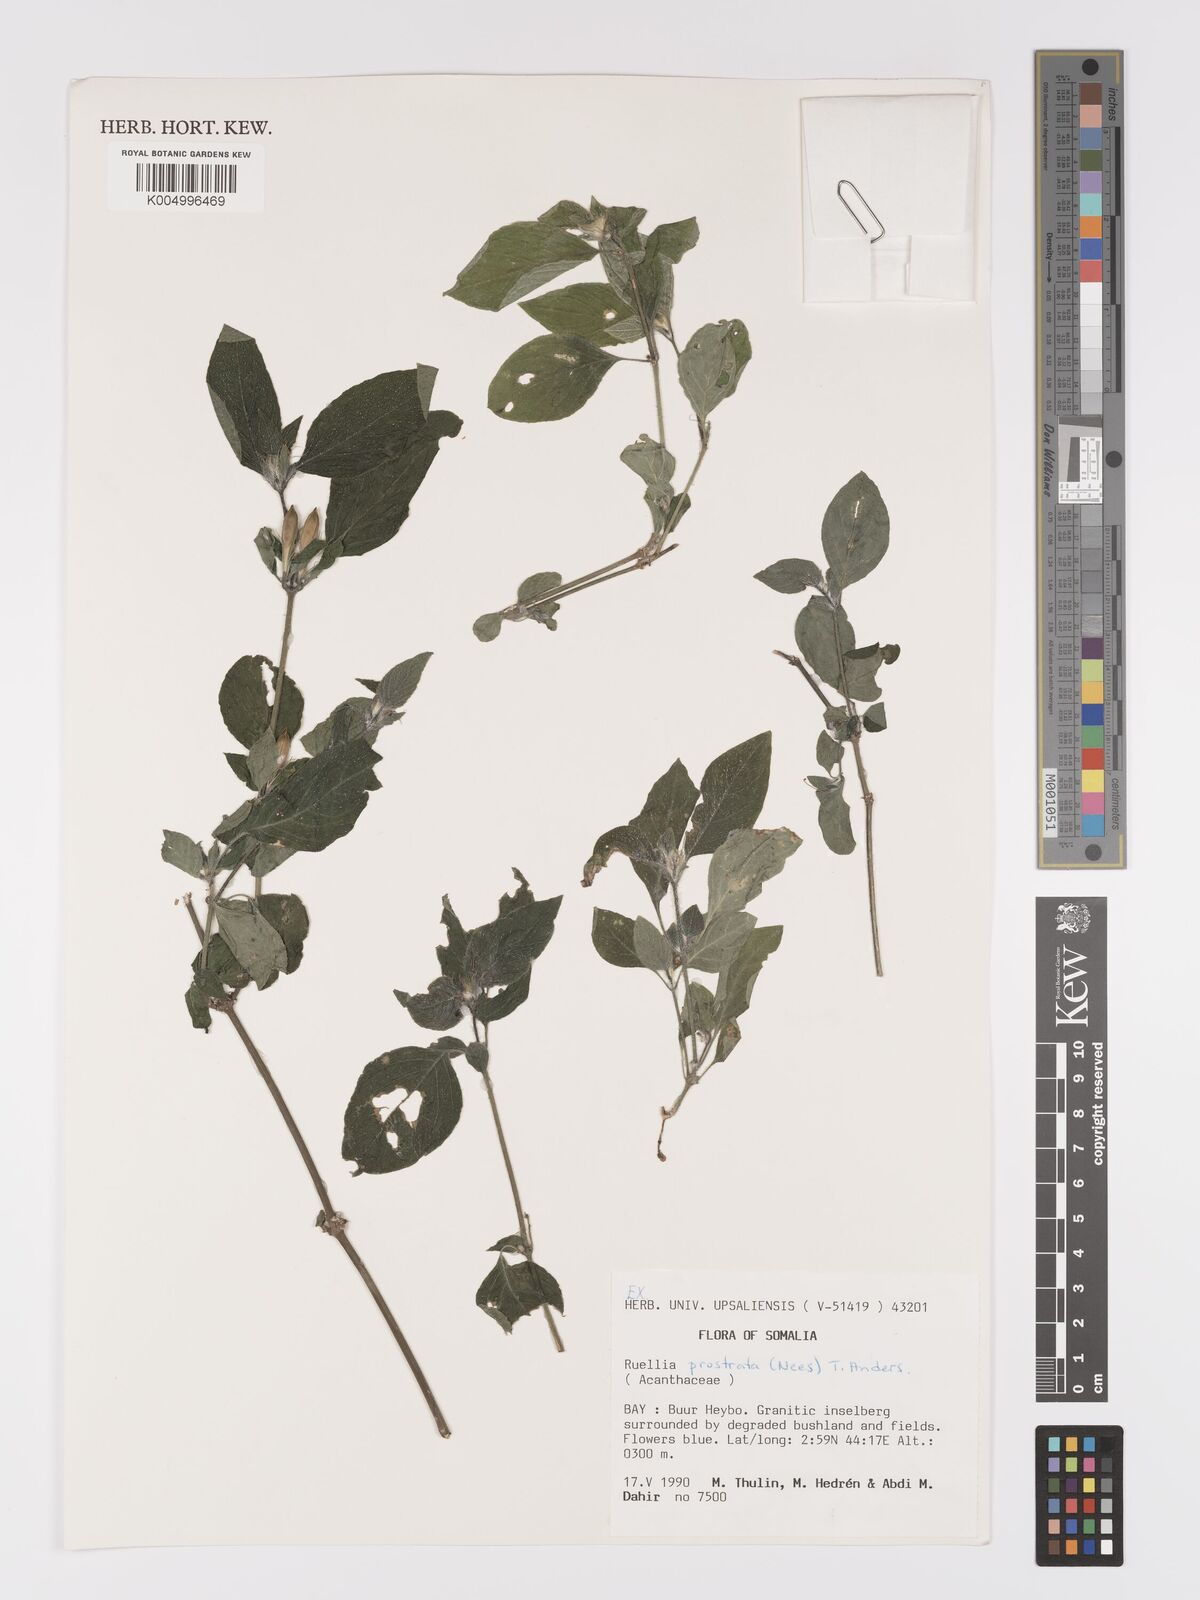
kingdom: Plantae
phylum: Tracheophyta
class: Magnoliopsida
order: Lamiales
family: Acanthaceae
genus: Ruellia
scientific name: Ruellia
